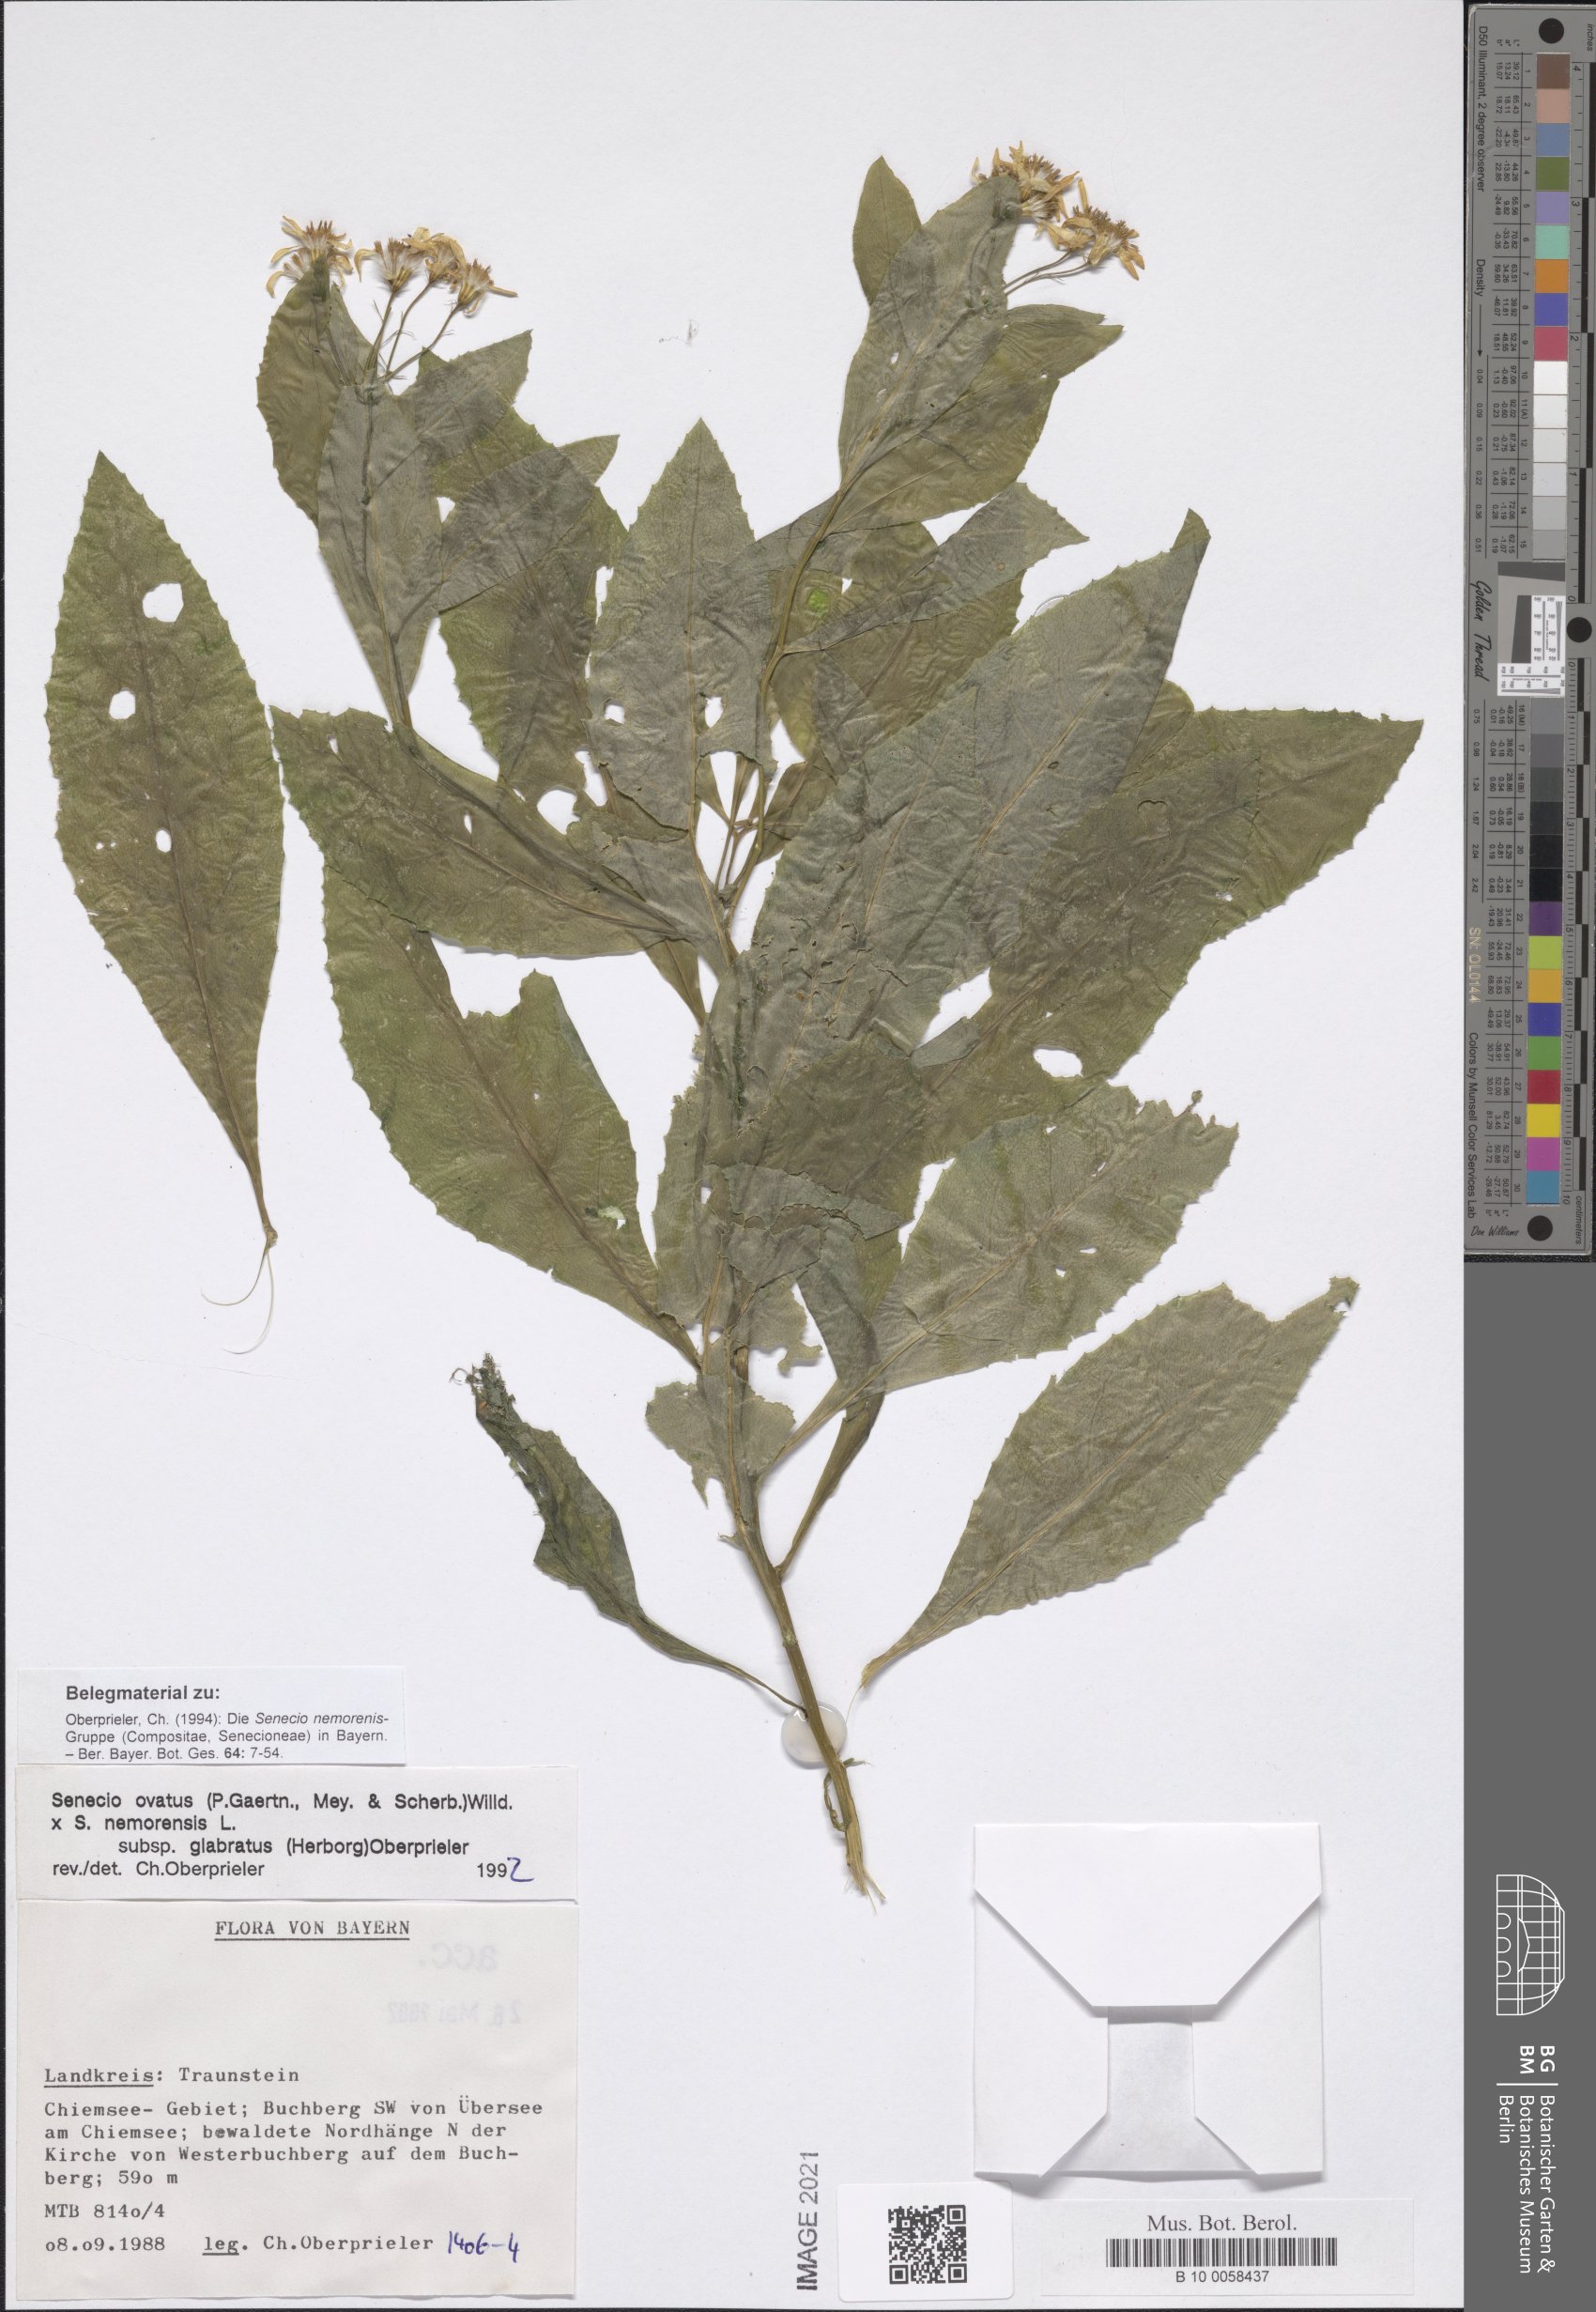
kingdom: Plantae
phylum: Tracheophyta
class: Magnoliopsida
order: Asterales
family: Asteraceae
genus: Senecio
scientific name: Senecio ovatus
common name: Wood ragwort
